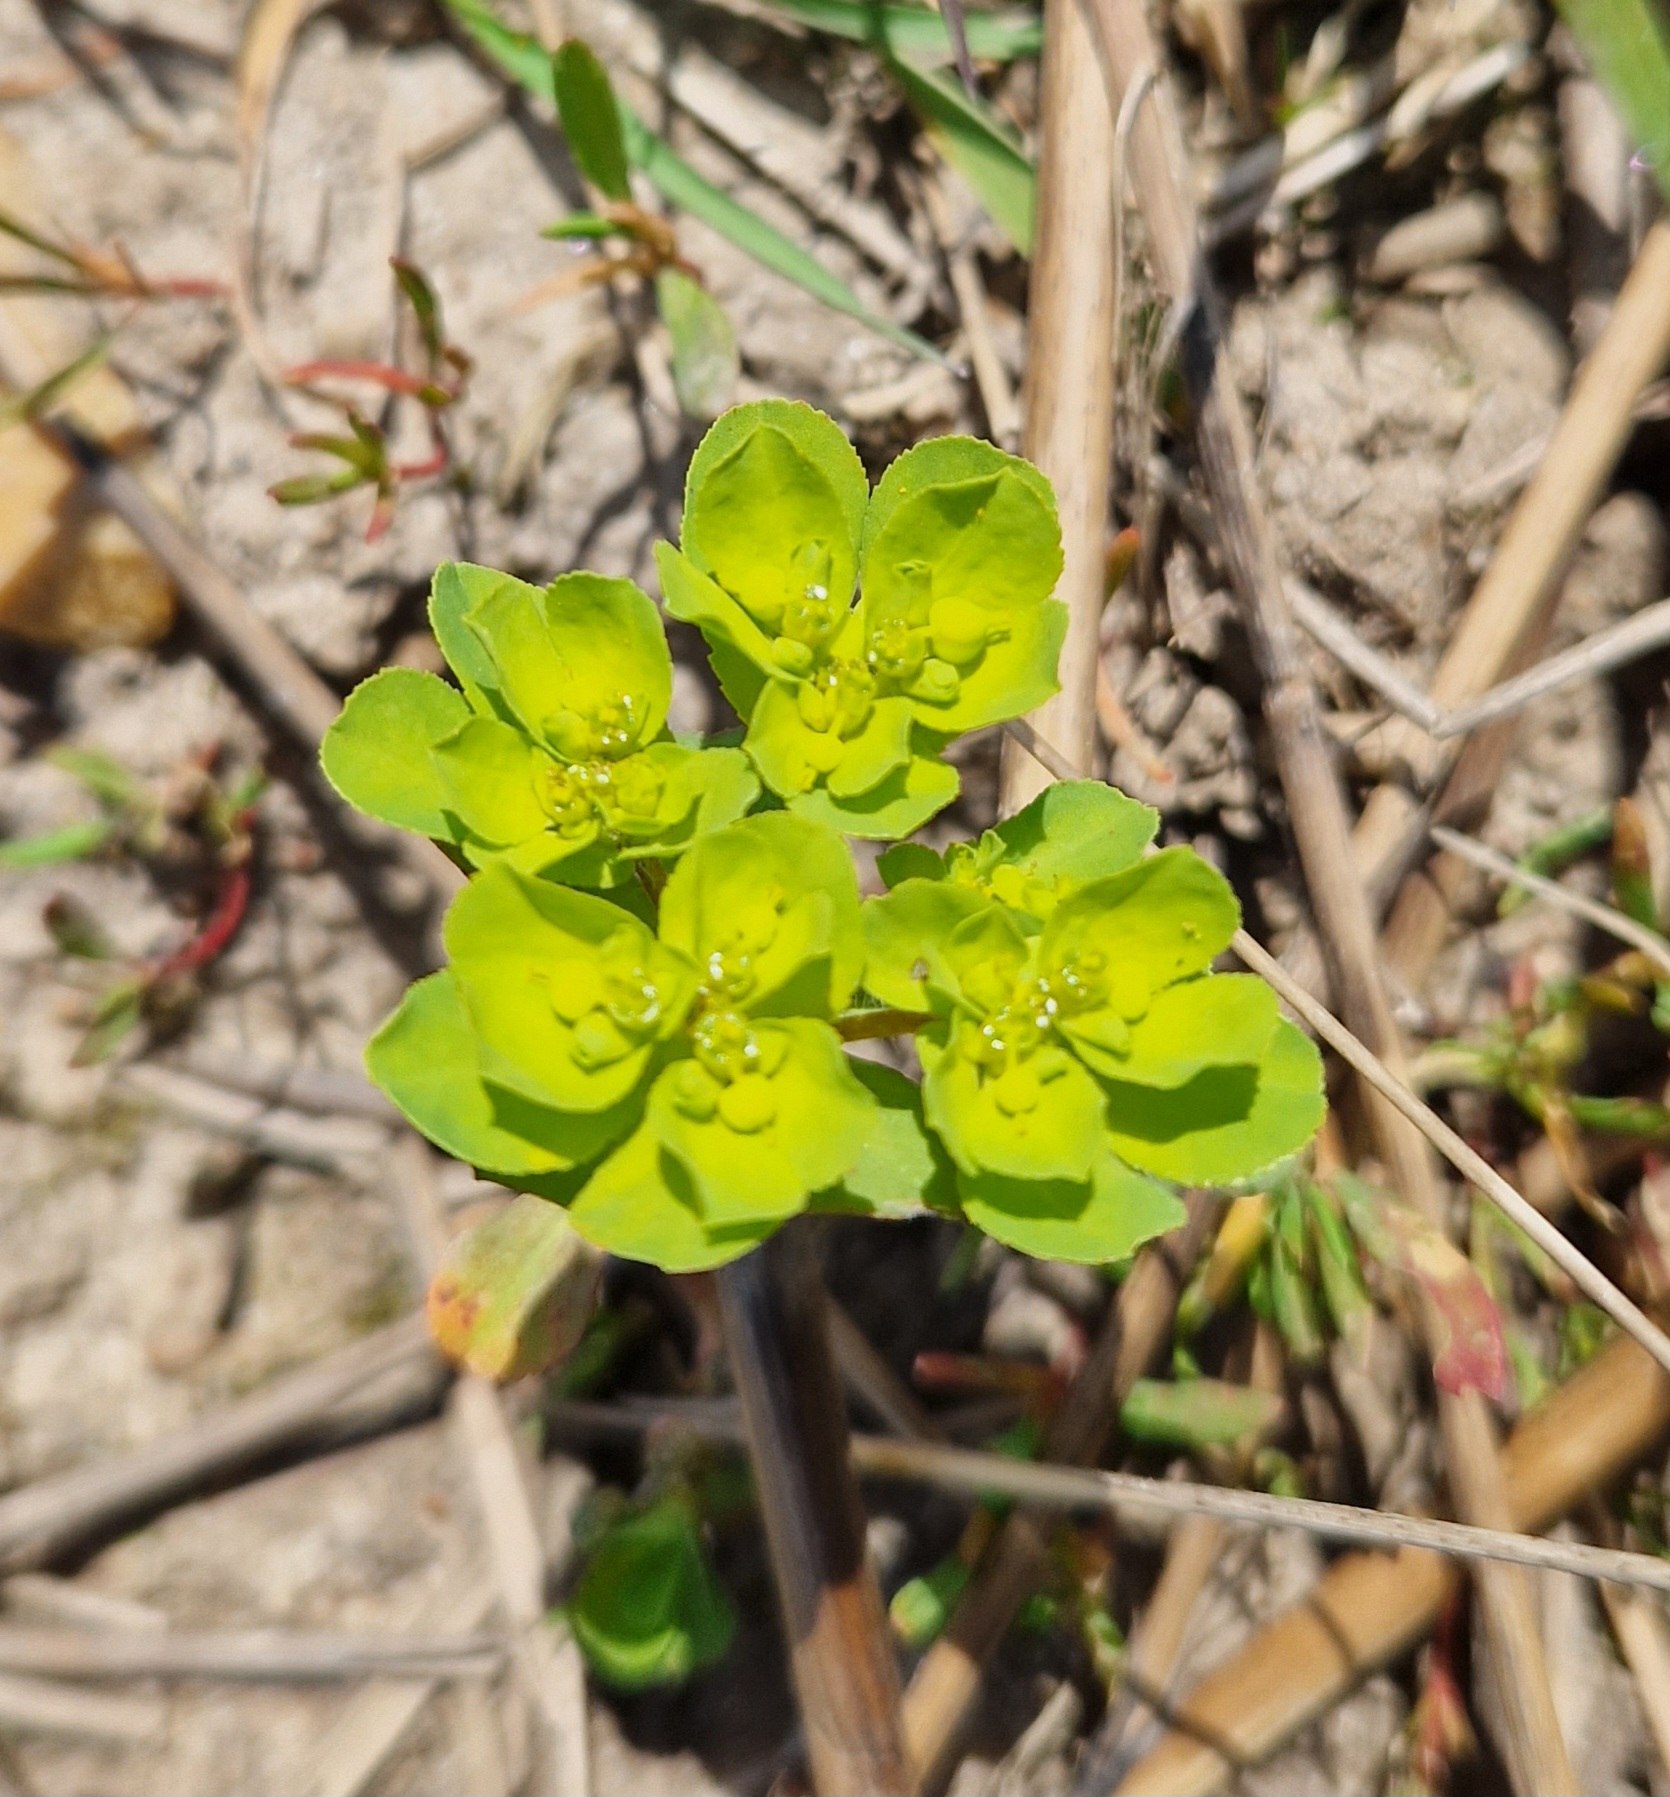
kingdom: Plantae
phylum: Tracheophyta
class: Magnoliopsida
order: Malpighiales
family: Euphorbiaceae
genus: Euphorbia
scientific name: Euphorbia helioscopia
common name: Skærm-vortemælk
